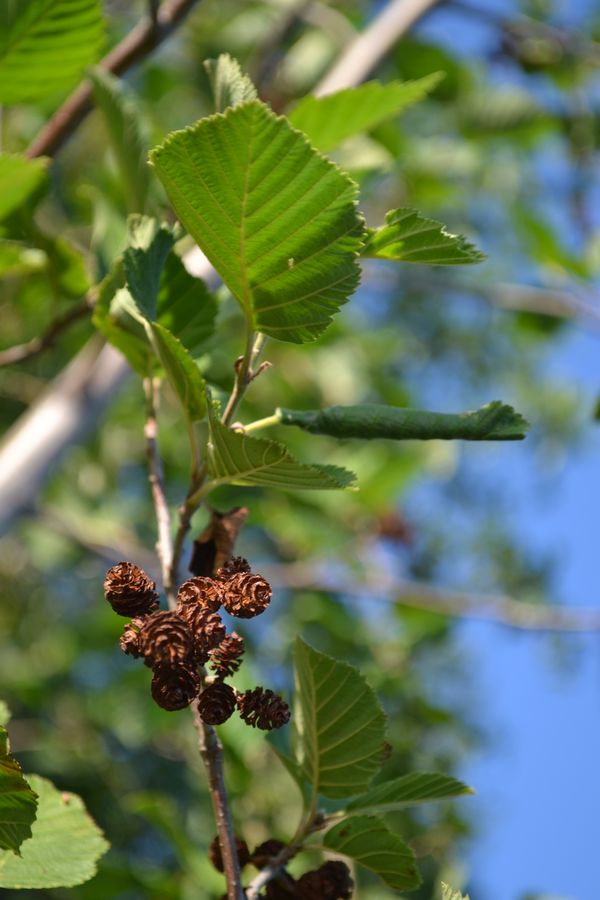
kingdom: Plantae
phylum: Tracheophyta
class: Magnoliopsida
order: Fagales
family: Betulaceae
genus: Alnus
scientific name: Alnus incana
